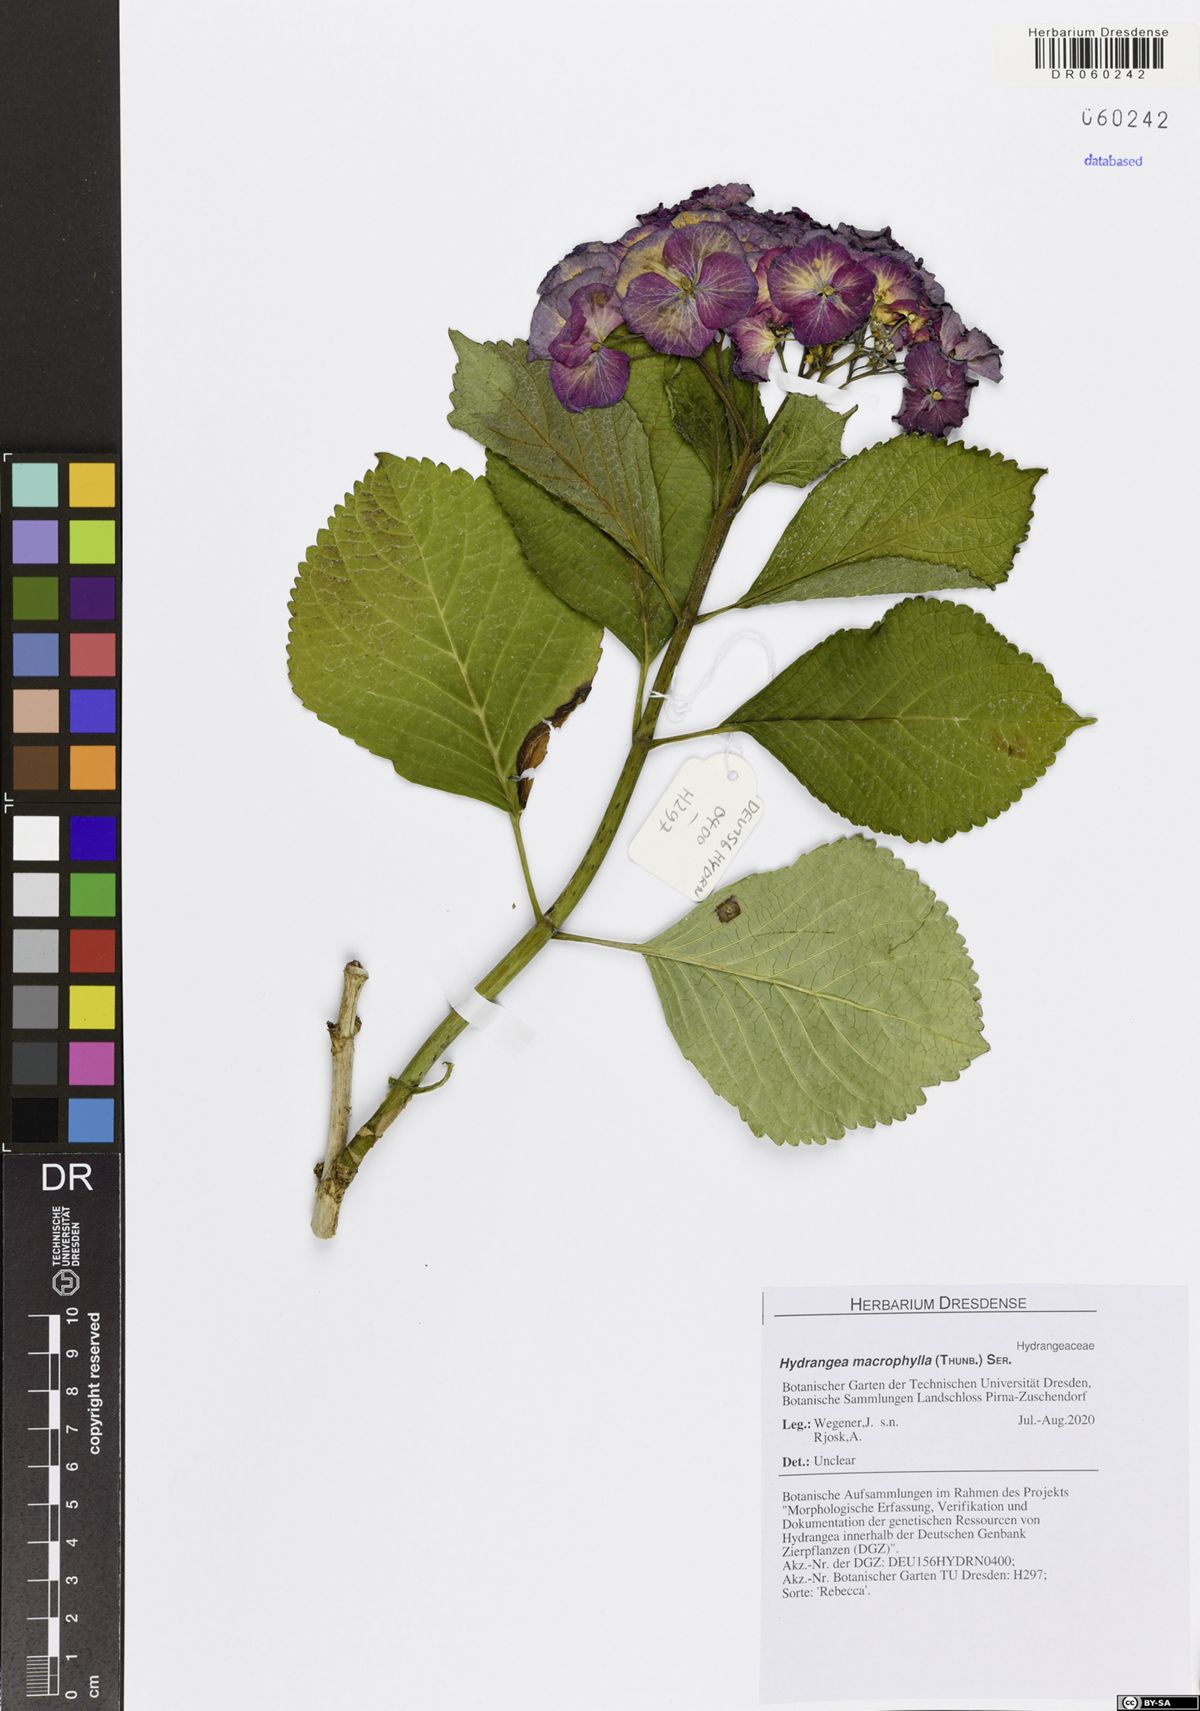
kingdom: Plantae
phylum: Tracheophyta
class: Magnoliopsida
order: Cornales
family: Hydrangeaceae
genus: Hydrangea
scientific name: Hydrangea macrophylla
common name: Hydrangea
